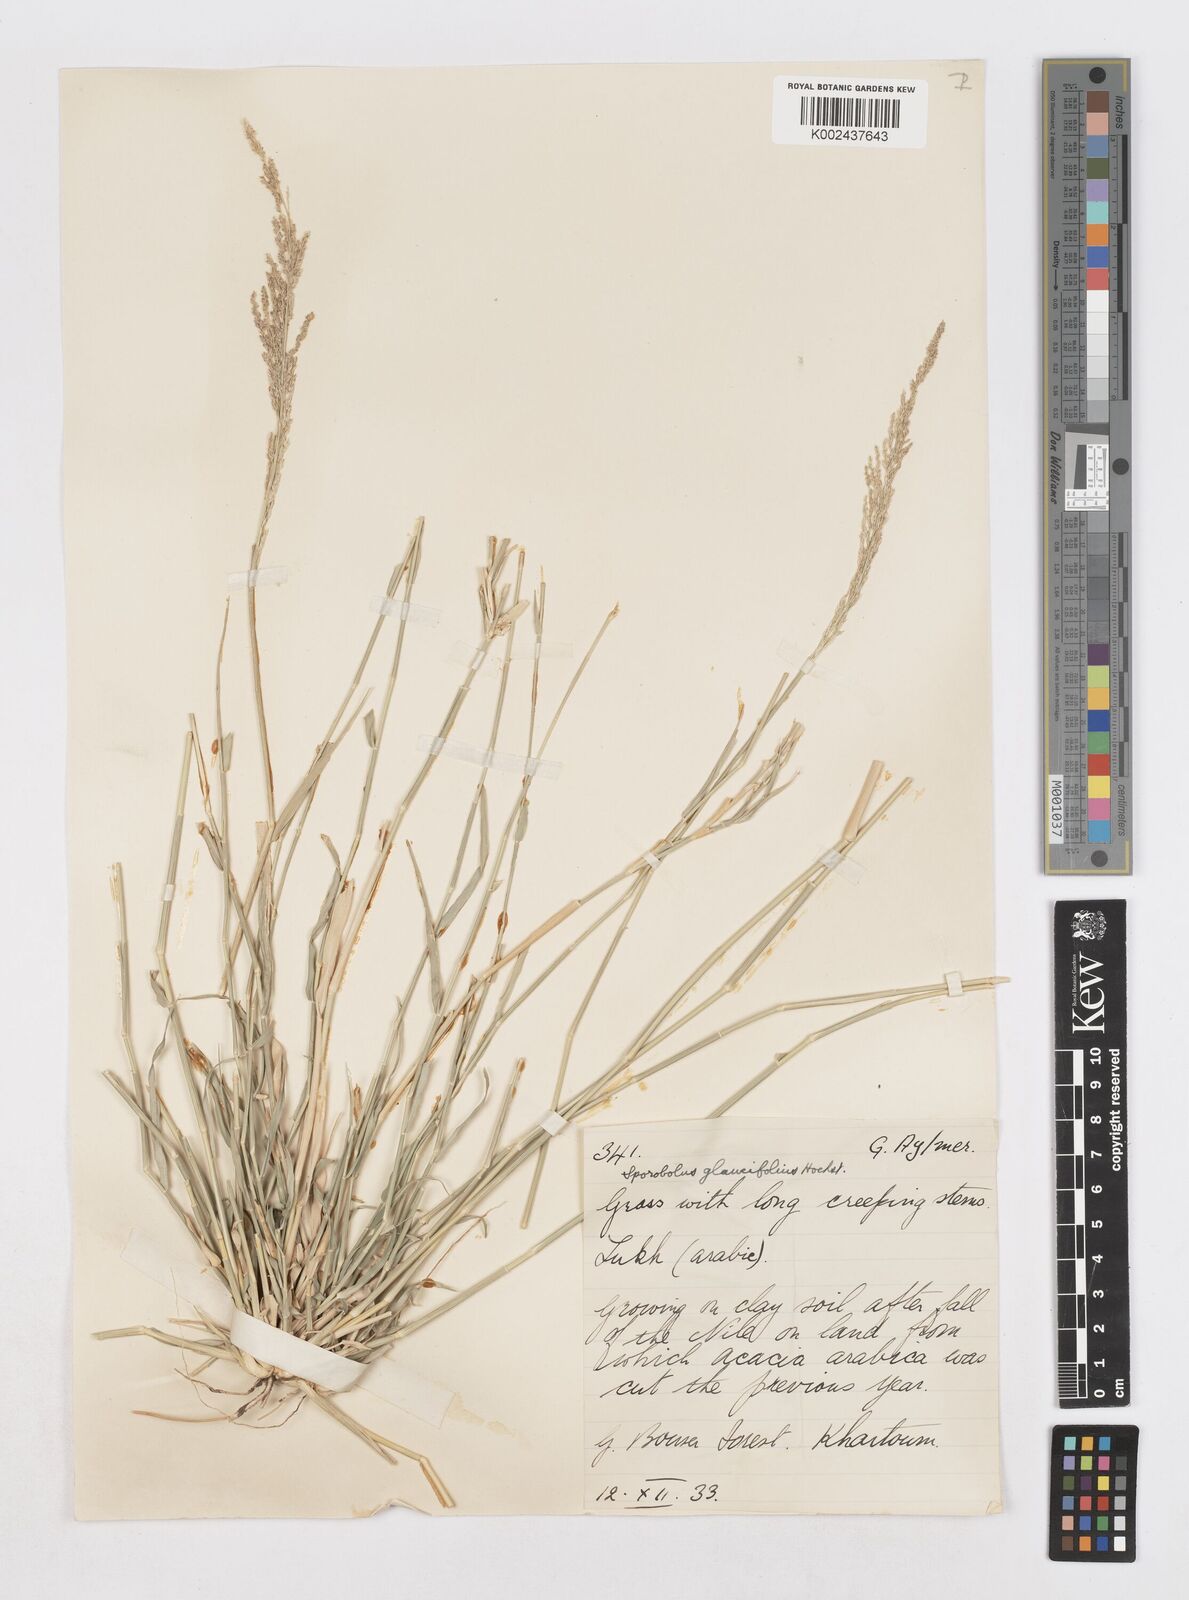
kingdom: Plantae
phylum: Tracheophyta
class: Liliopsida
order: Poales
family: Poaceae
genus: Sporobolus
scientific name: Sporobolus helvolus
